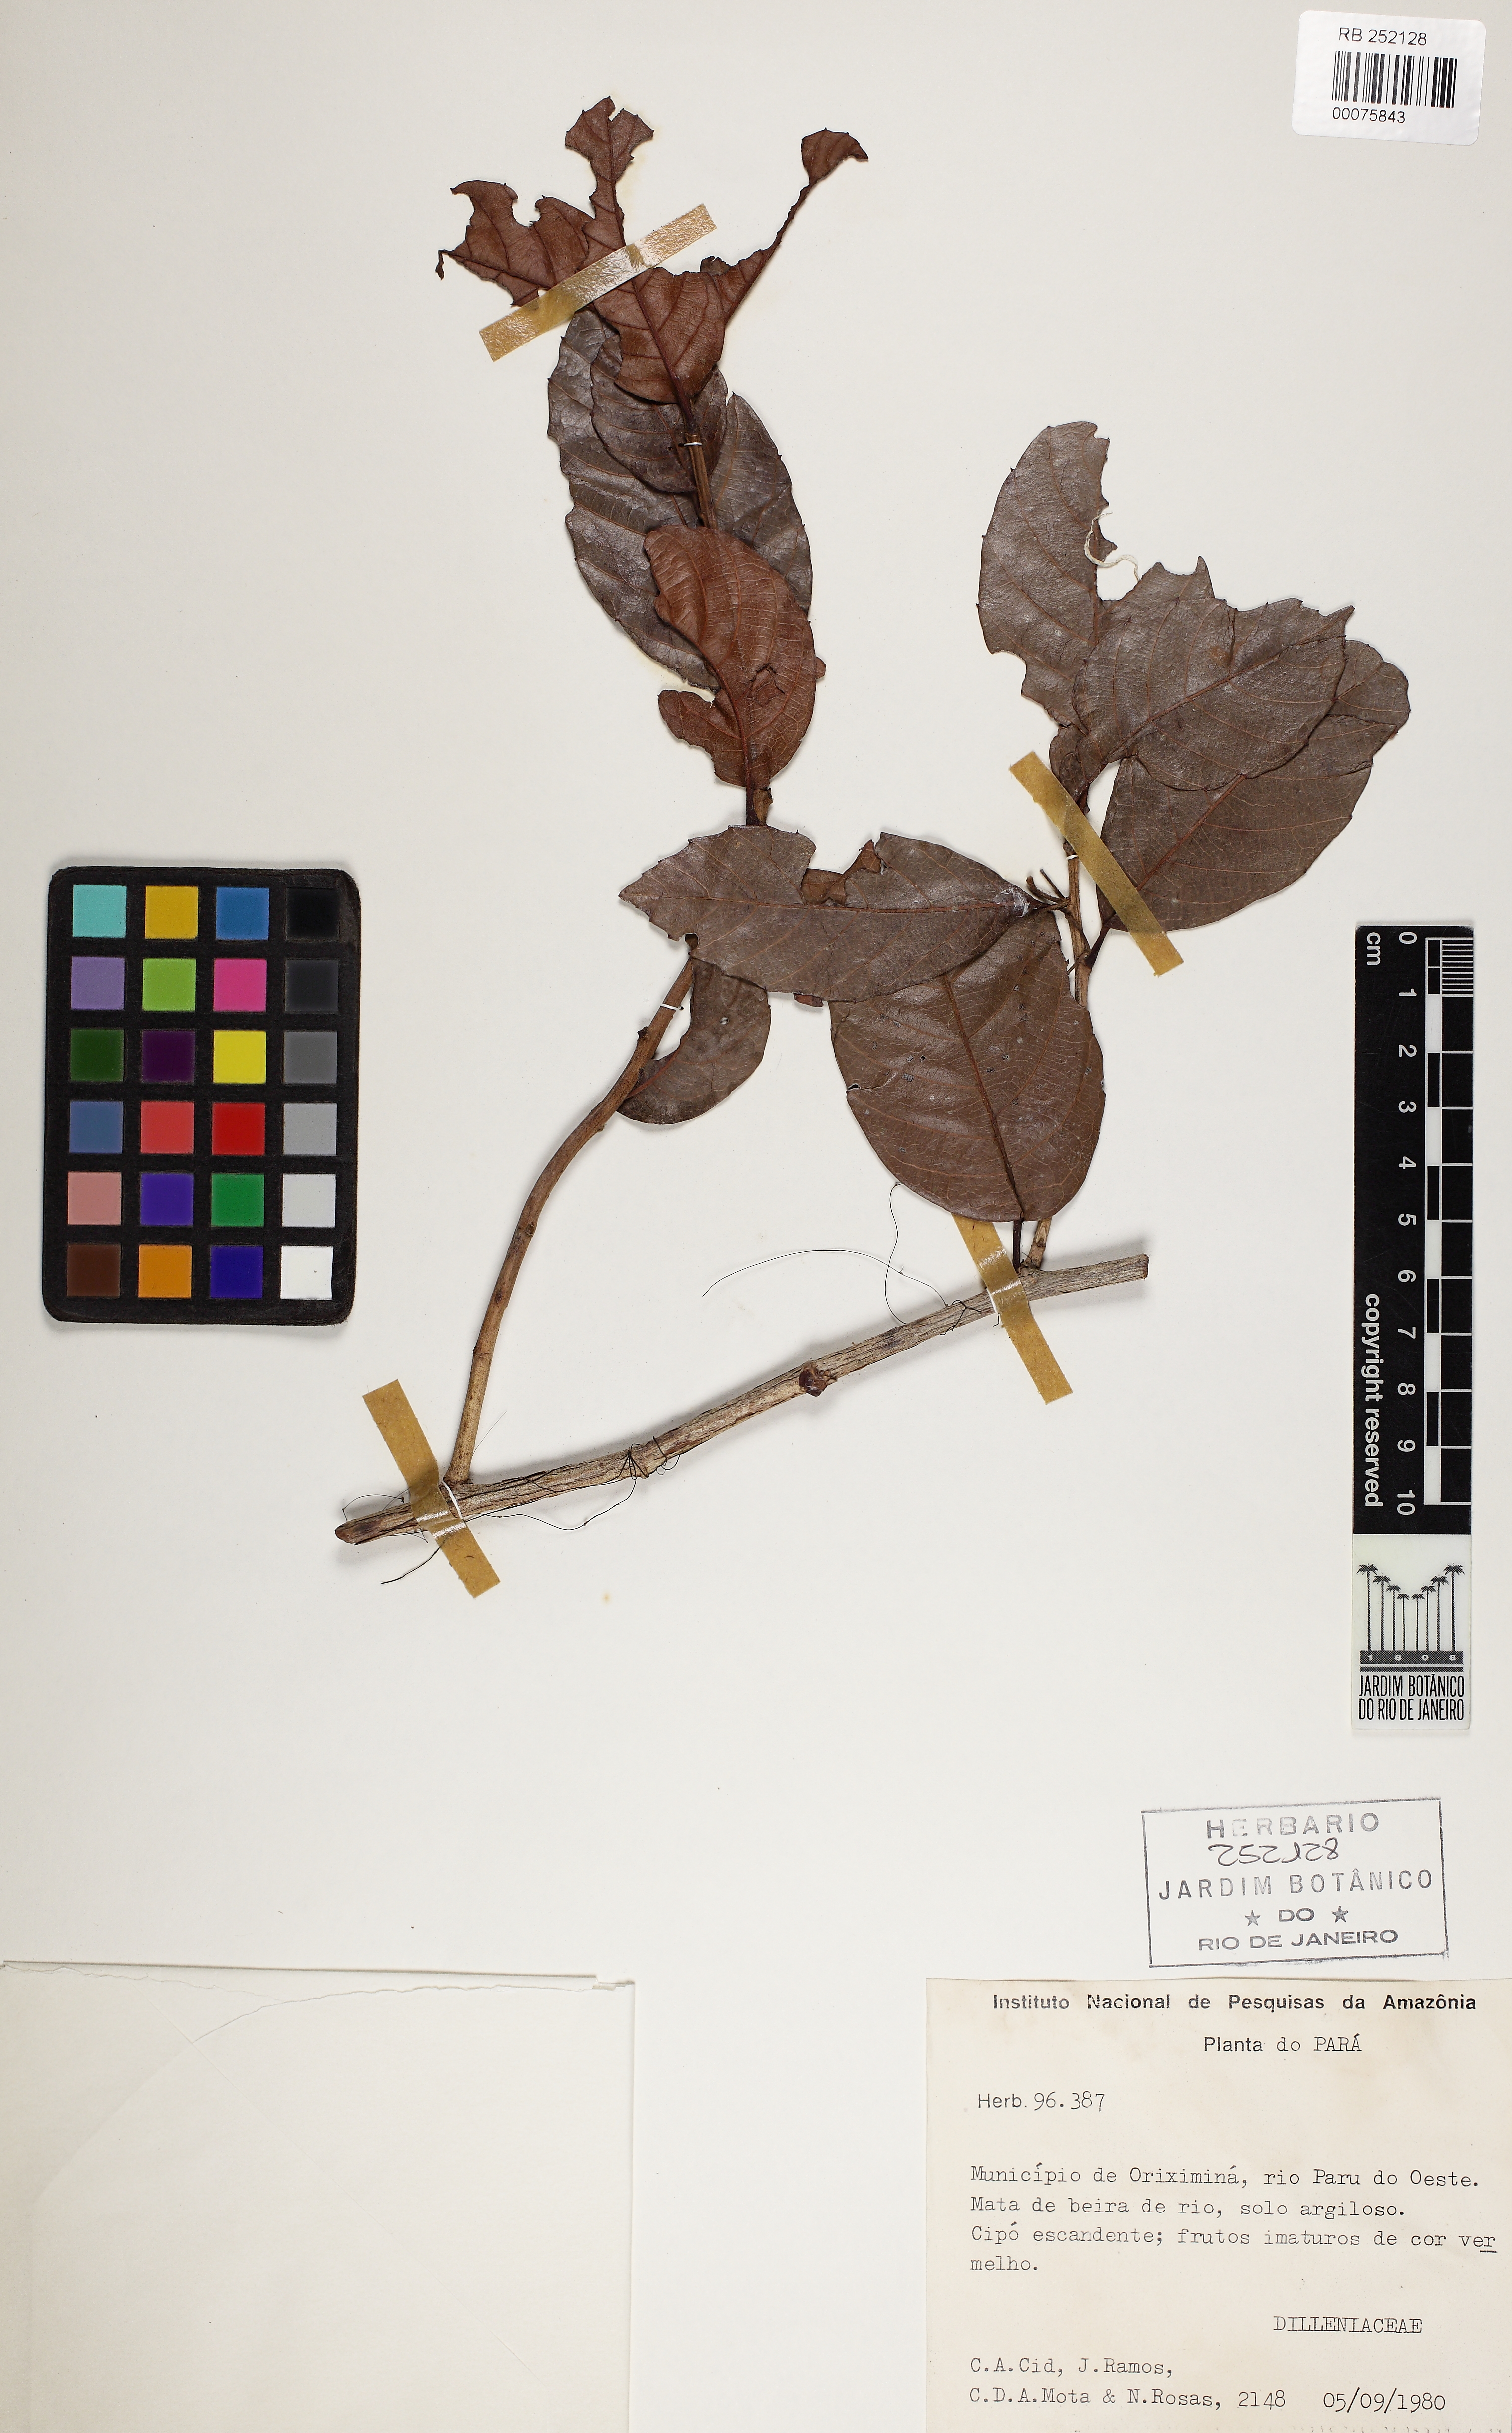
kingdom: Plantae
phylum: Tracheophyta
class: Magnoliopsida
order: Dilleniales
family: Dilleniaceae
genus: Doliocarpus
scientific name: Doliocarpus major
